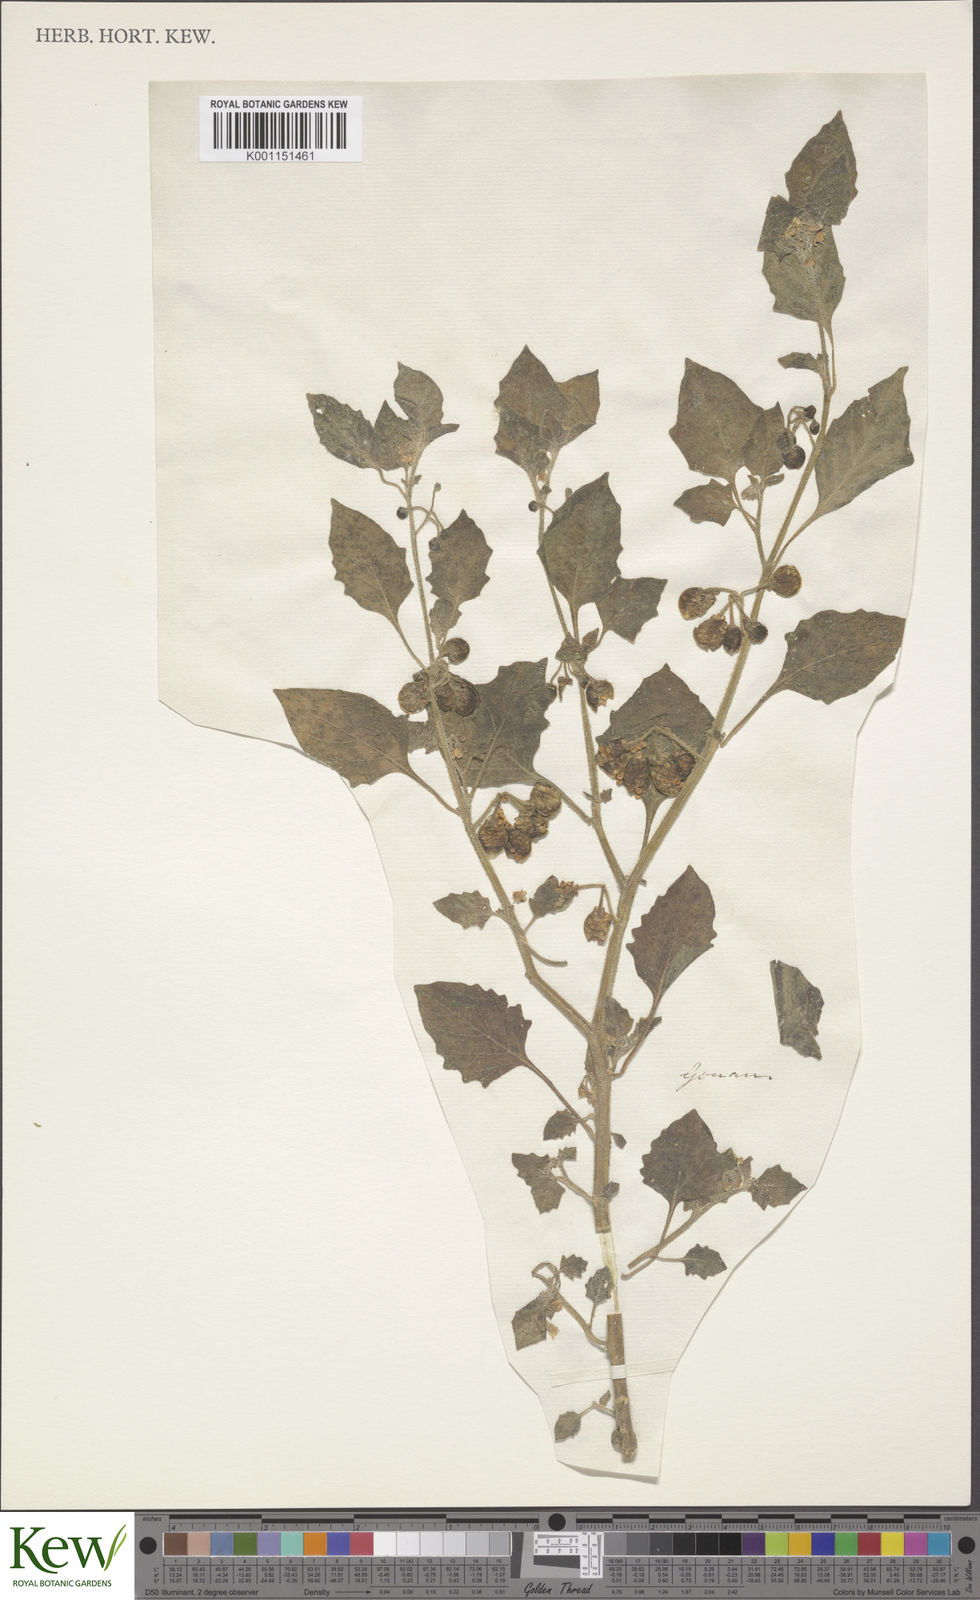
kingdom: Plantae
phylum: Tracheophyta
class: Magnoliopsida
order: Solanales
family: Solanaceae
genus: Solanum
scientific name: Solanum villosum
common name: Red nightshade
